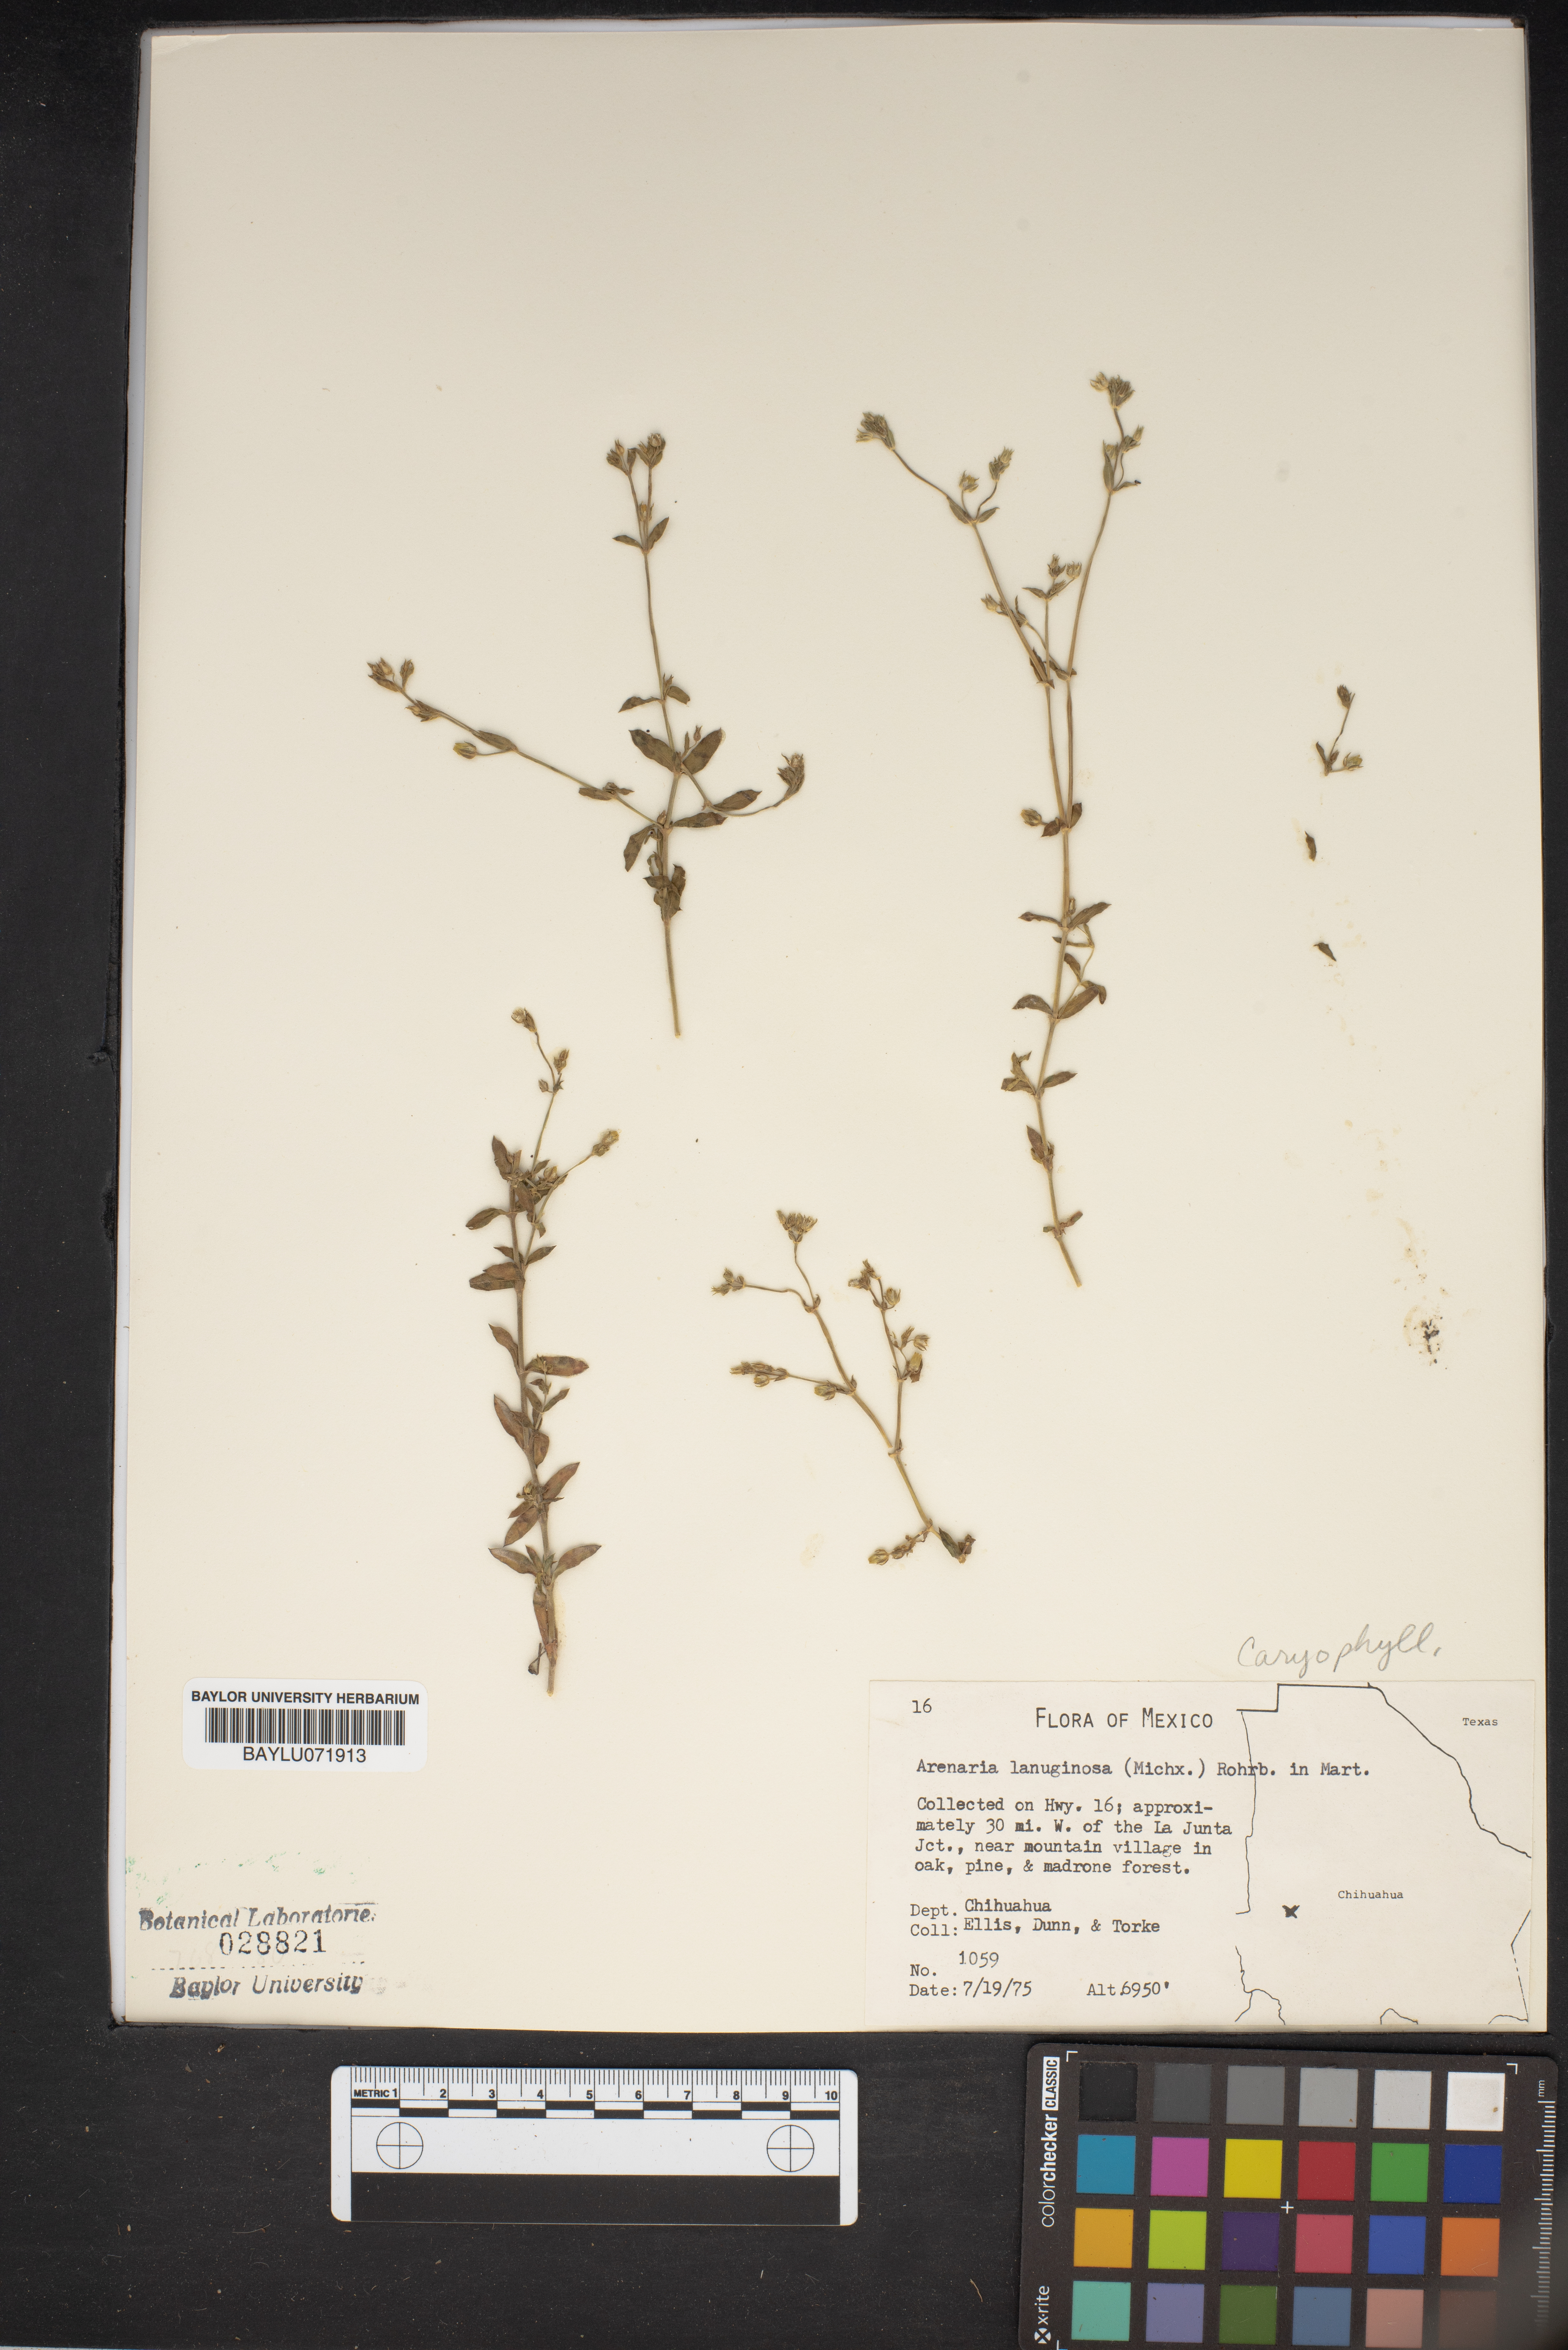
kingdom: Plantae
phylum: Tracheophyta
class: Magnoliopsida
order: Caryophyllales
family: Caryophyllaceae
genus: Arenaria
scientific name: Arenaria lanuginosa
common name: Spread sandwort
